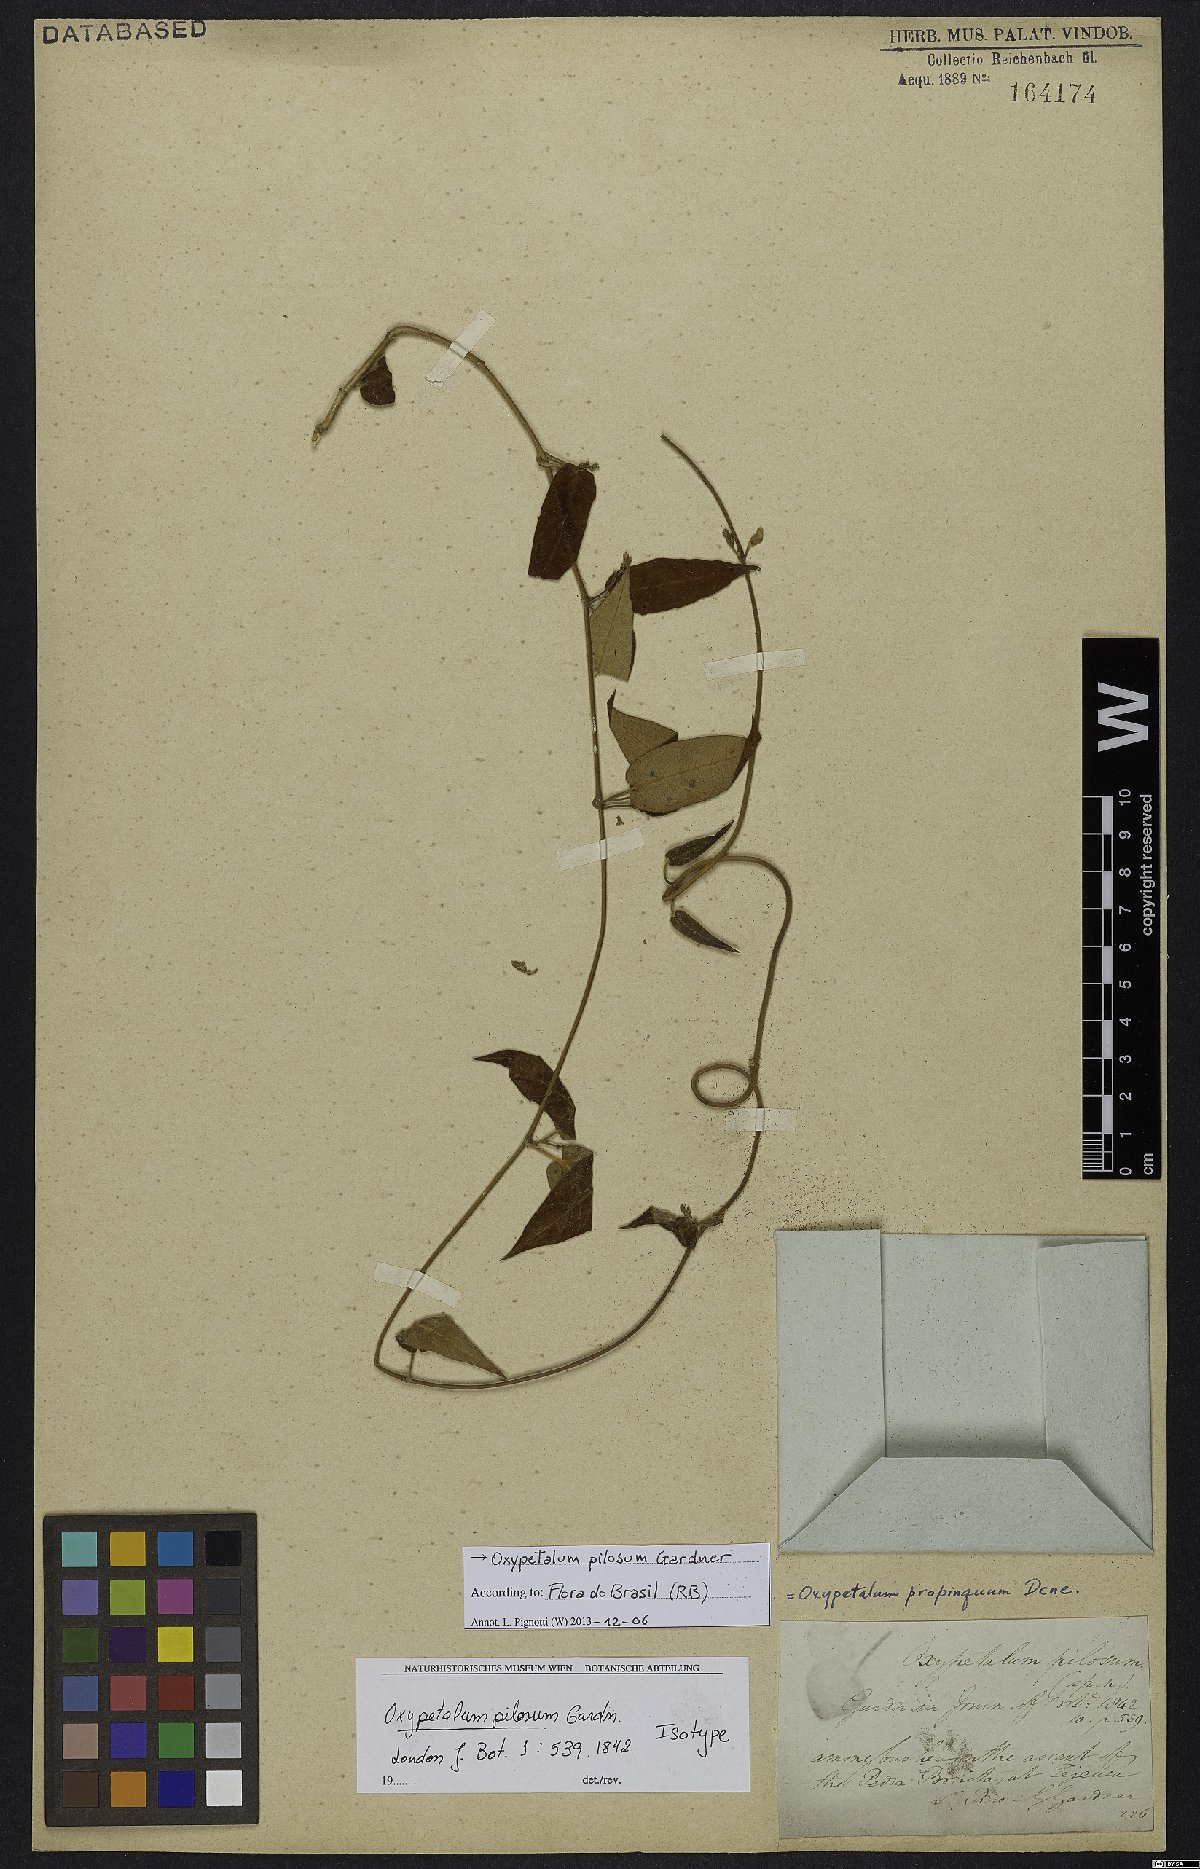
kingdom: Plantae
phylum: Tracheophyta
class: Magnoliopsida
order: Gentianales
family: Apocynaceae
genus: Oxypetalum
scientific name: Oxypetalum pilosum
